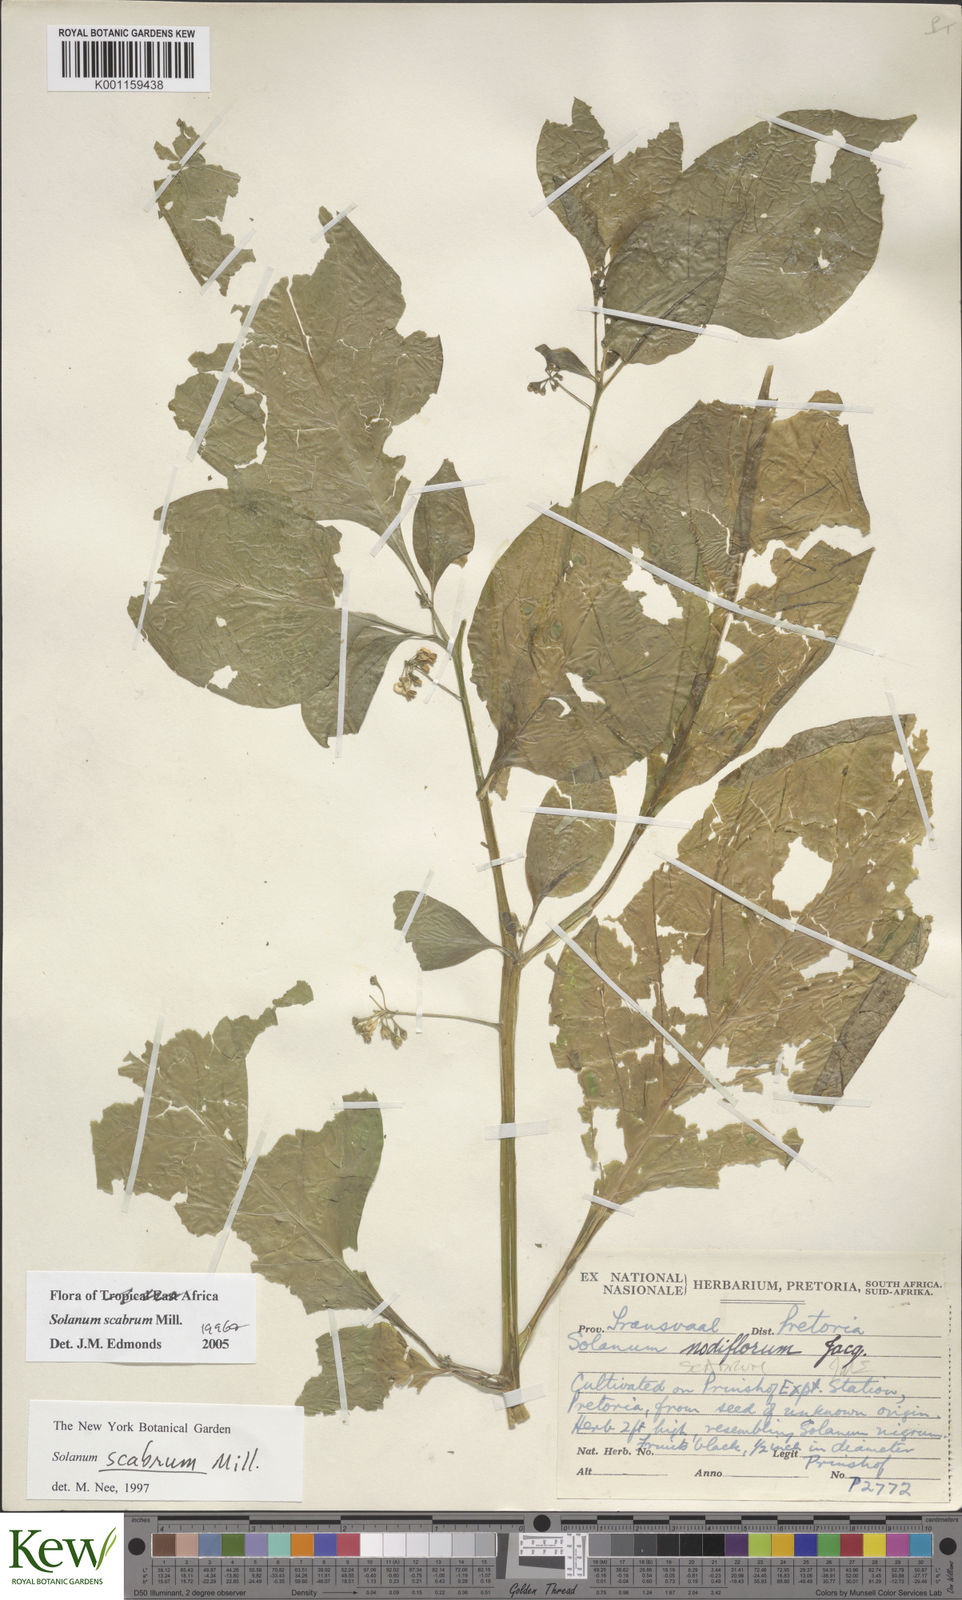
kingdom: Plantae
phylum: Tracheophyta
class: Magnoliopsida
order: Solanales
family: Solanaceae
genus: Solanum
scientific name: Solanum scabrum
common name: Garden-huckleberry
